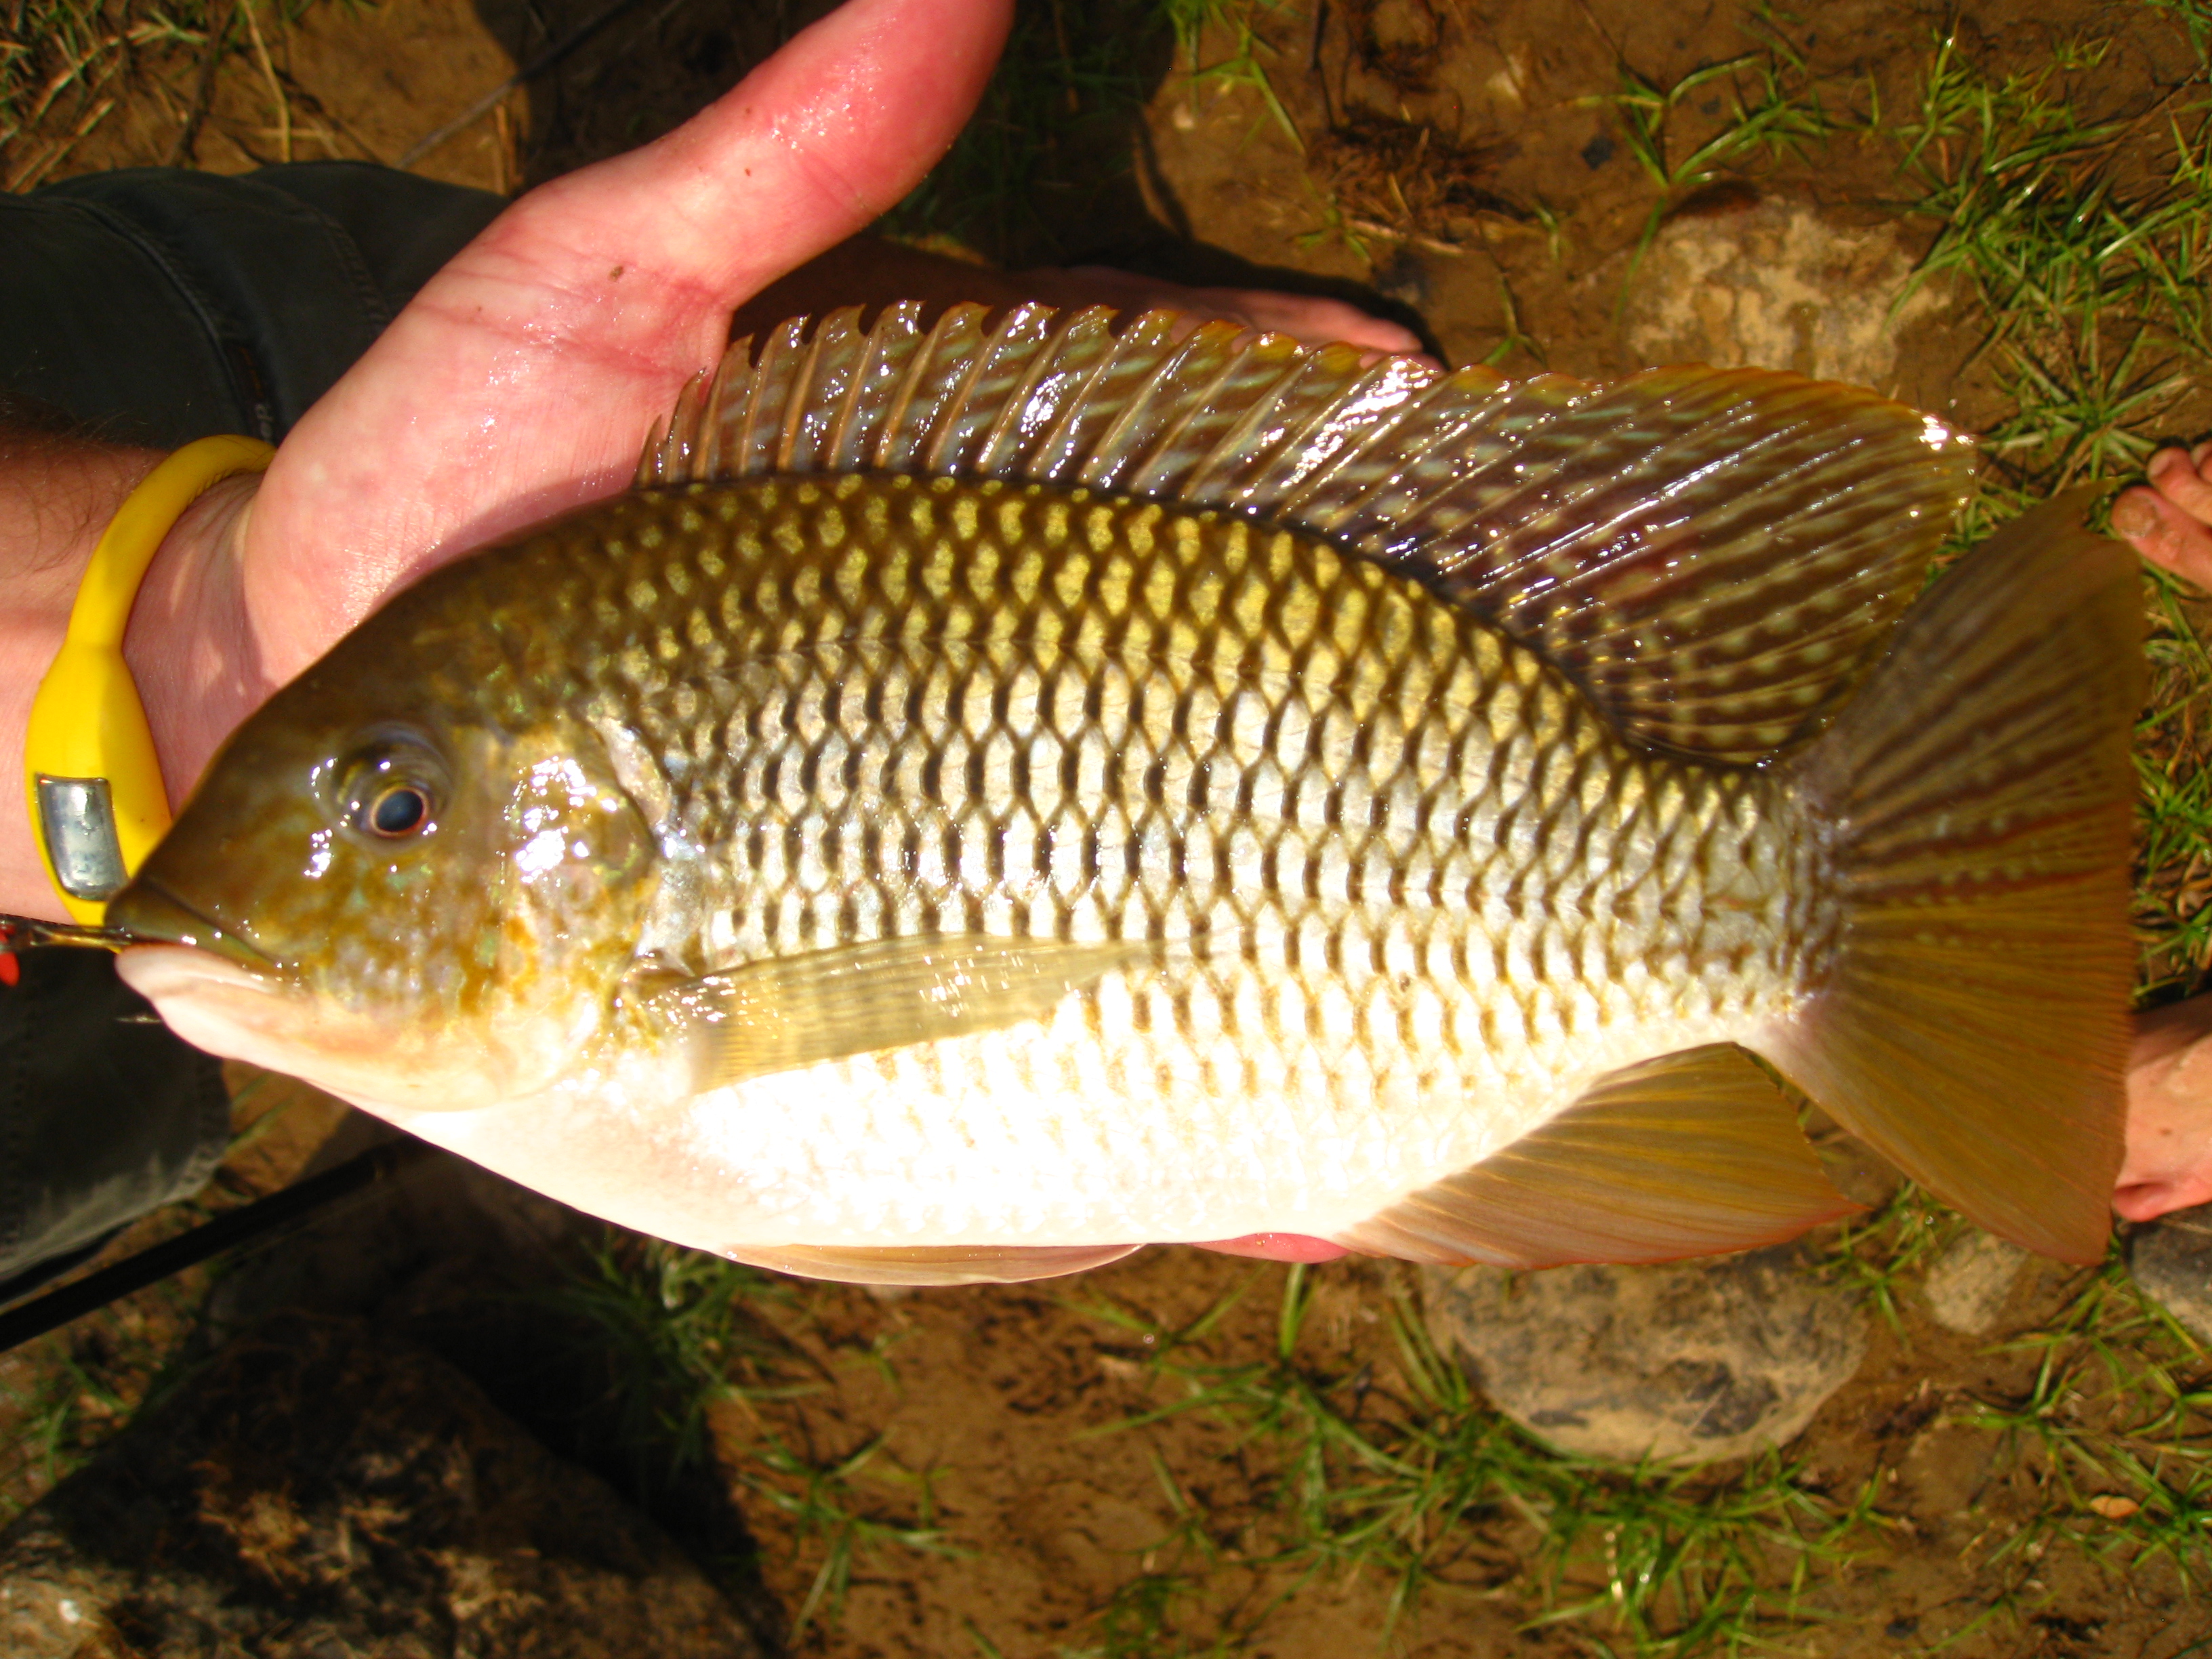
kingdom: Animalia
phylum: Chordata
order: Perciformes
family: Cichlidae
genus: Coptodon
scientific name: Coptodon rendalli
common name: Redbreast tilapia
